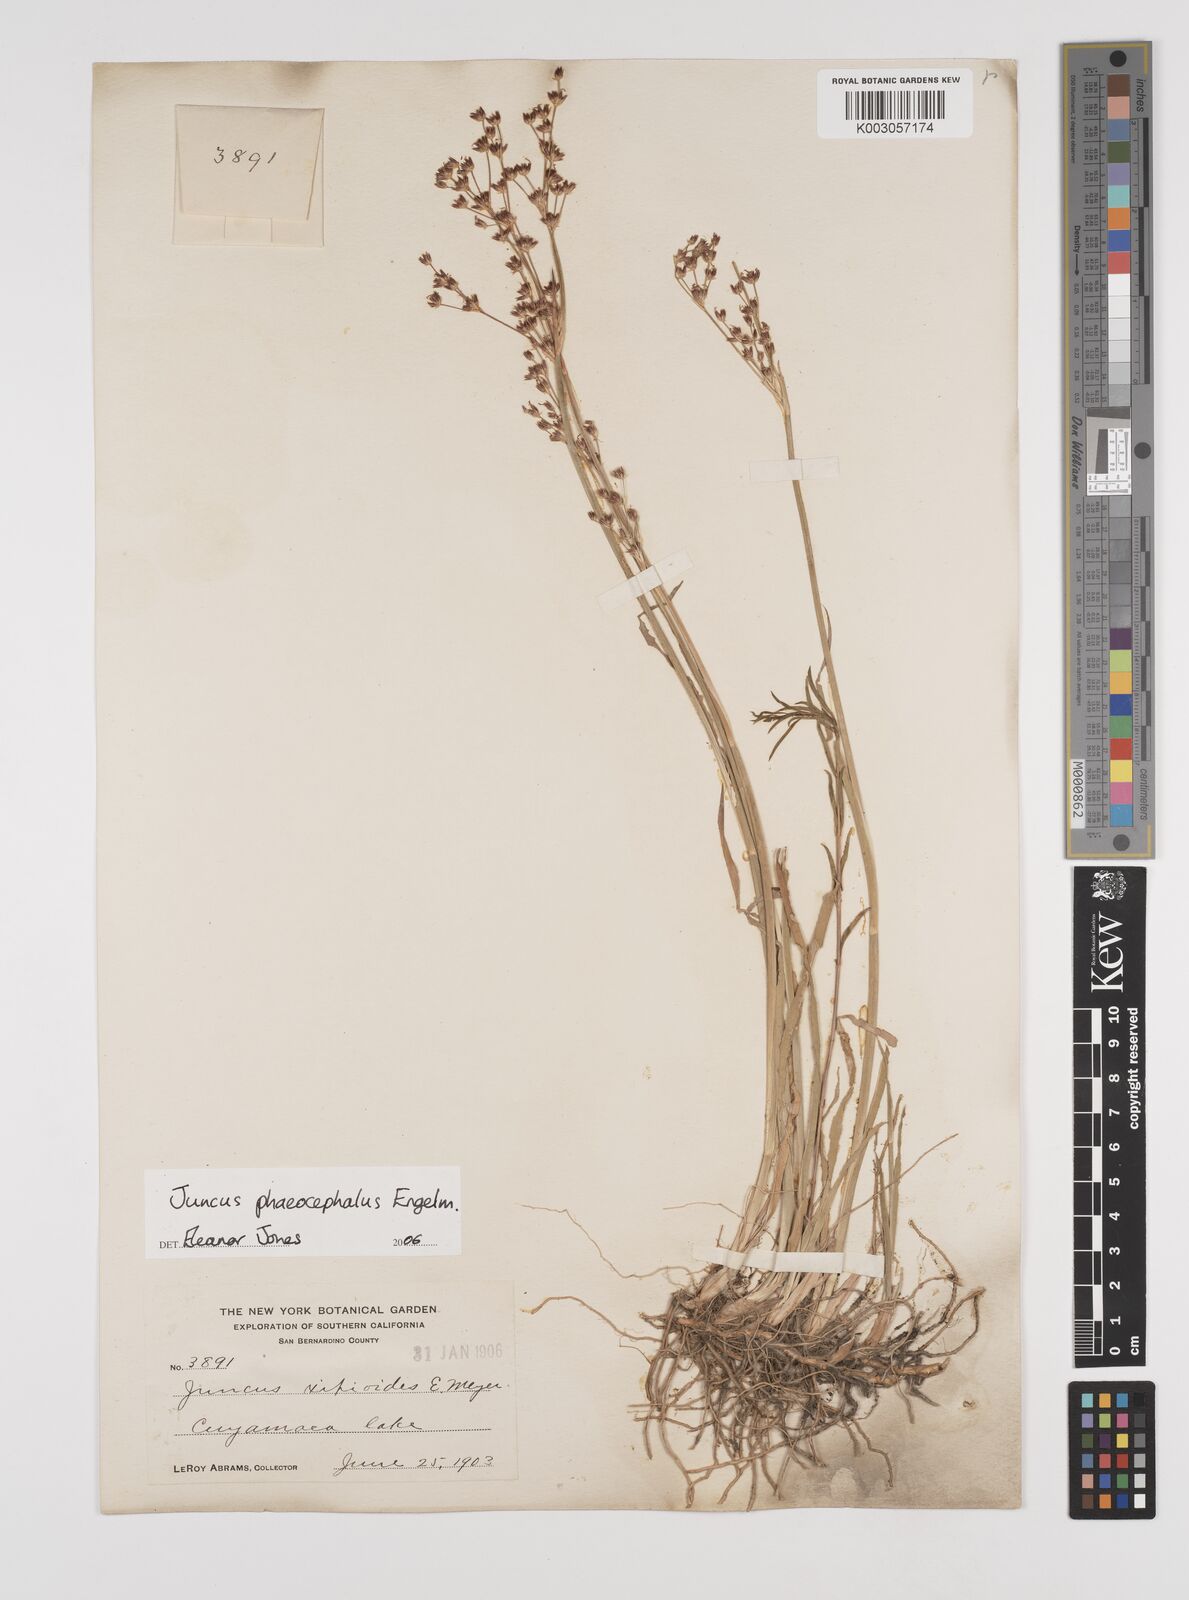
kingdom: Plantae
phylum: Tracheophyta
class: Liliopsida
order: Poales
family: Juncaceae
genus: Juncus
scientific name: Juncus phaeocephalus
